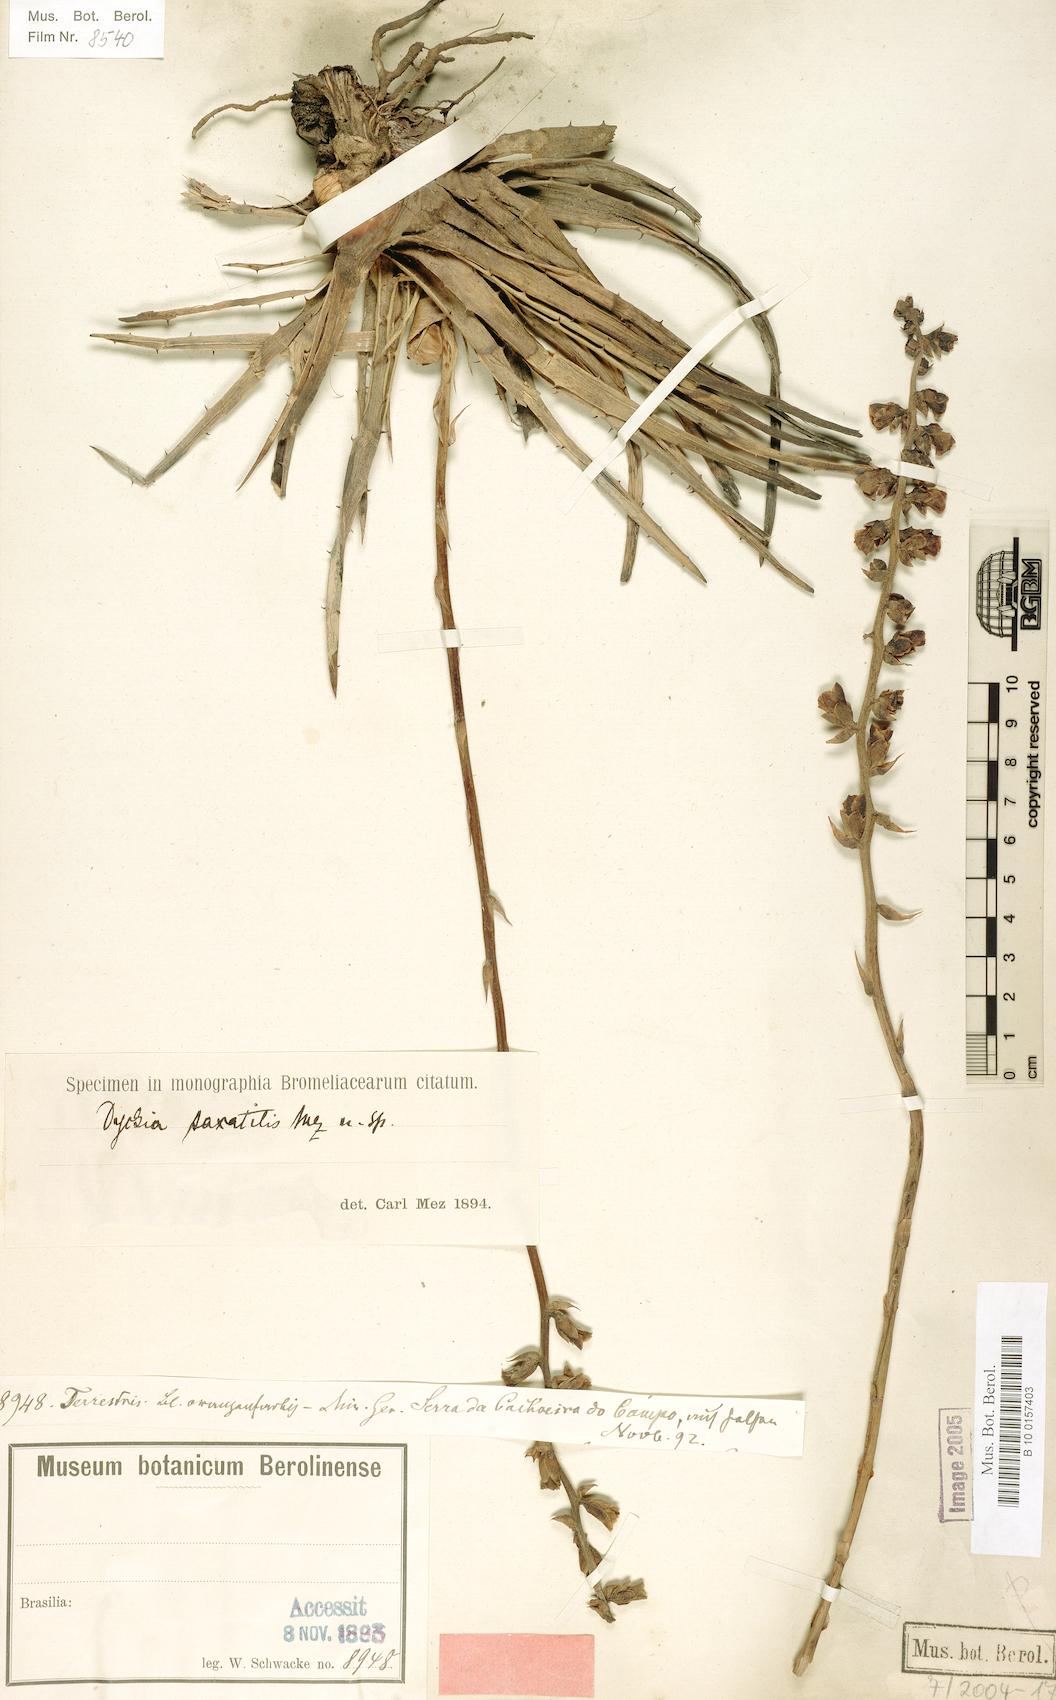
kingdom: Plantae
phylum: Tracheophyta
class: Liliopsida
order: Poales
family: Bromeliaceae
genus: Dyckia
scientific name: Dyckia saxatilis
